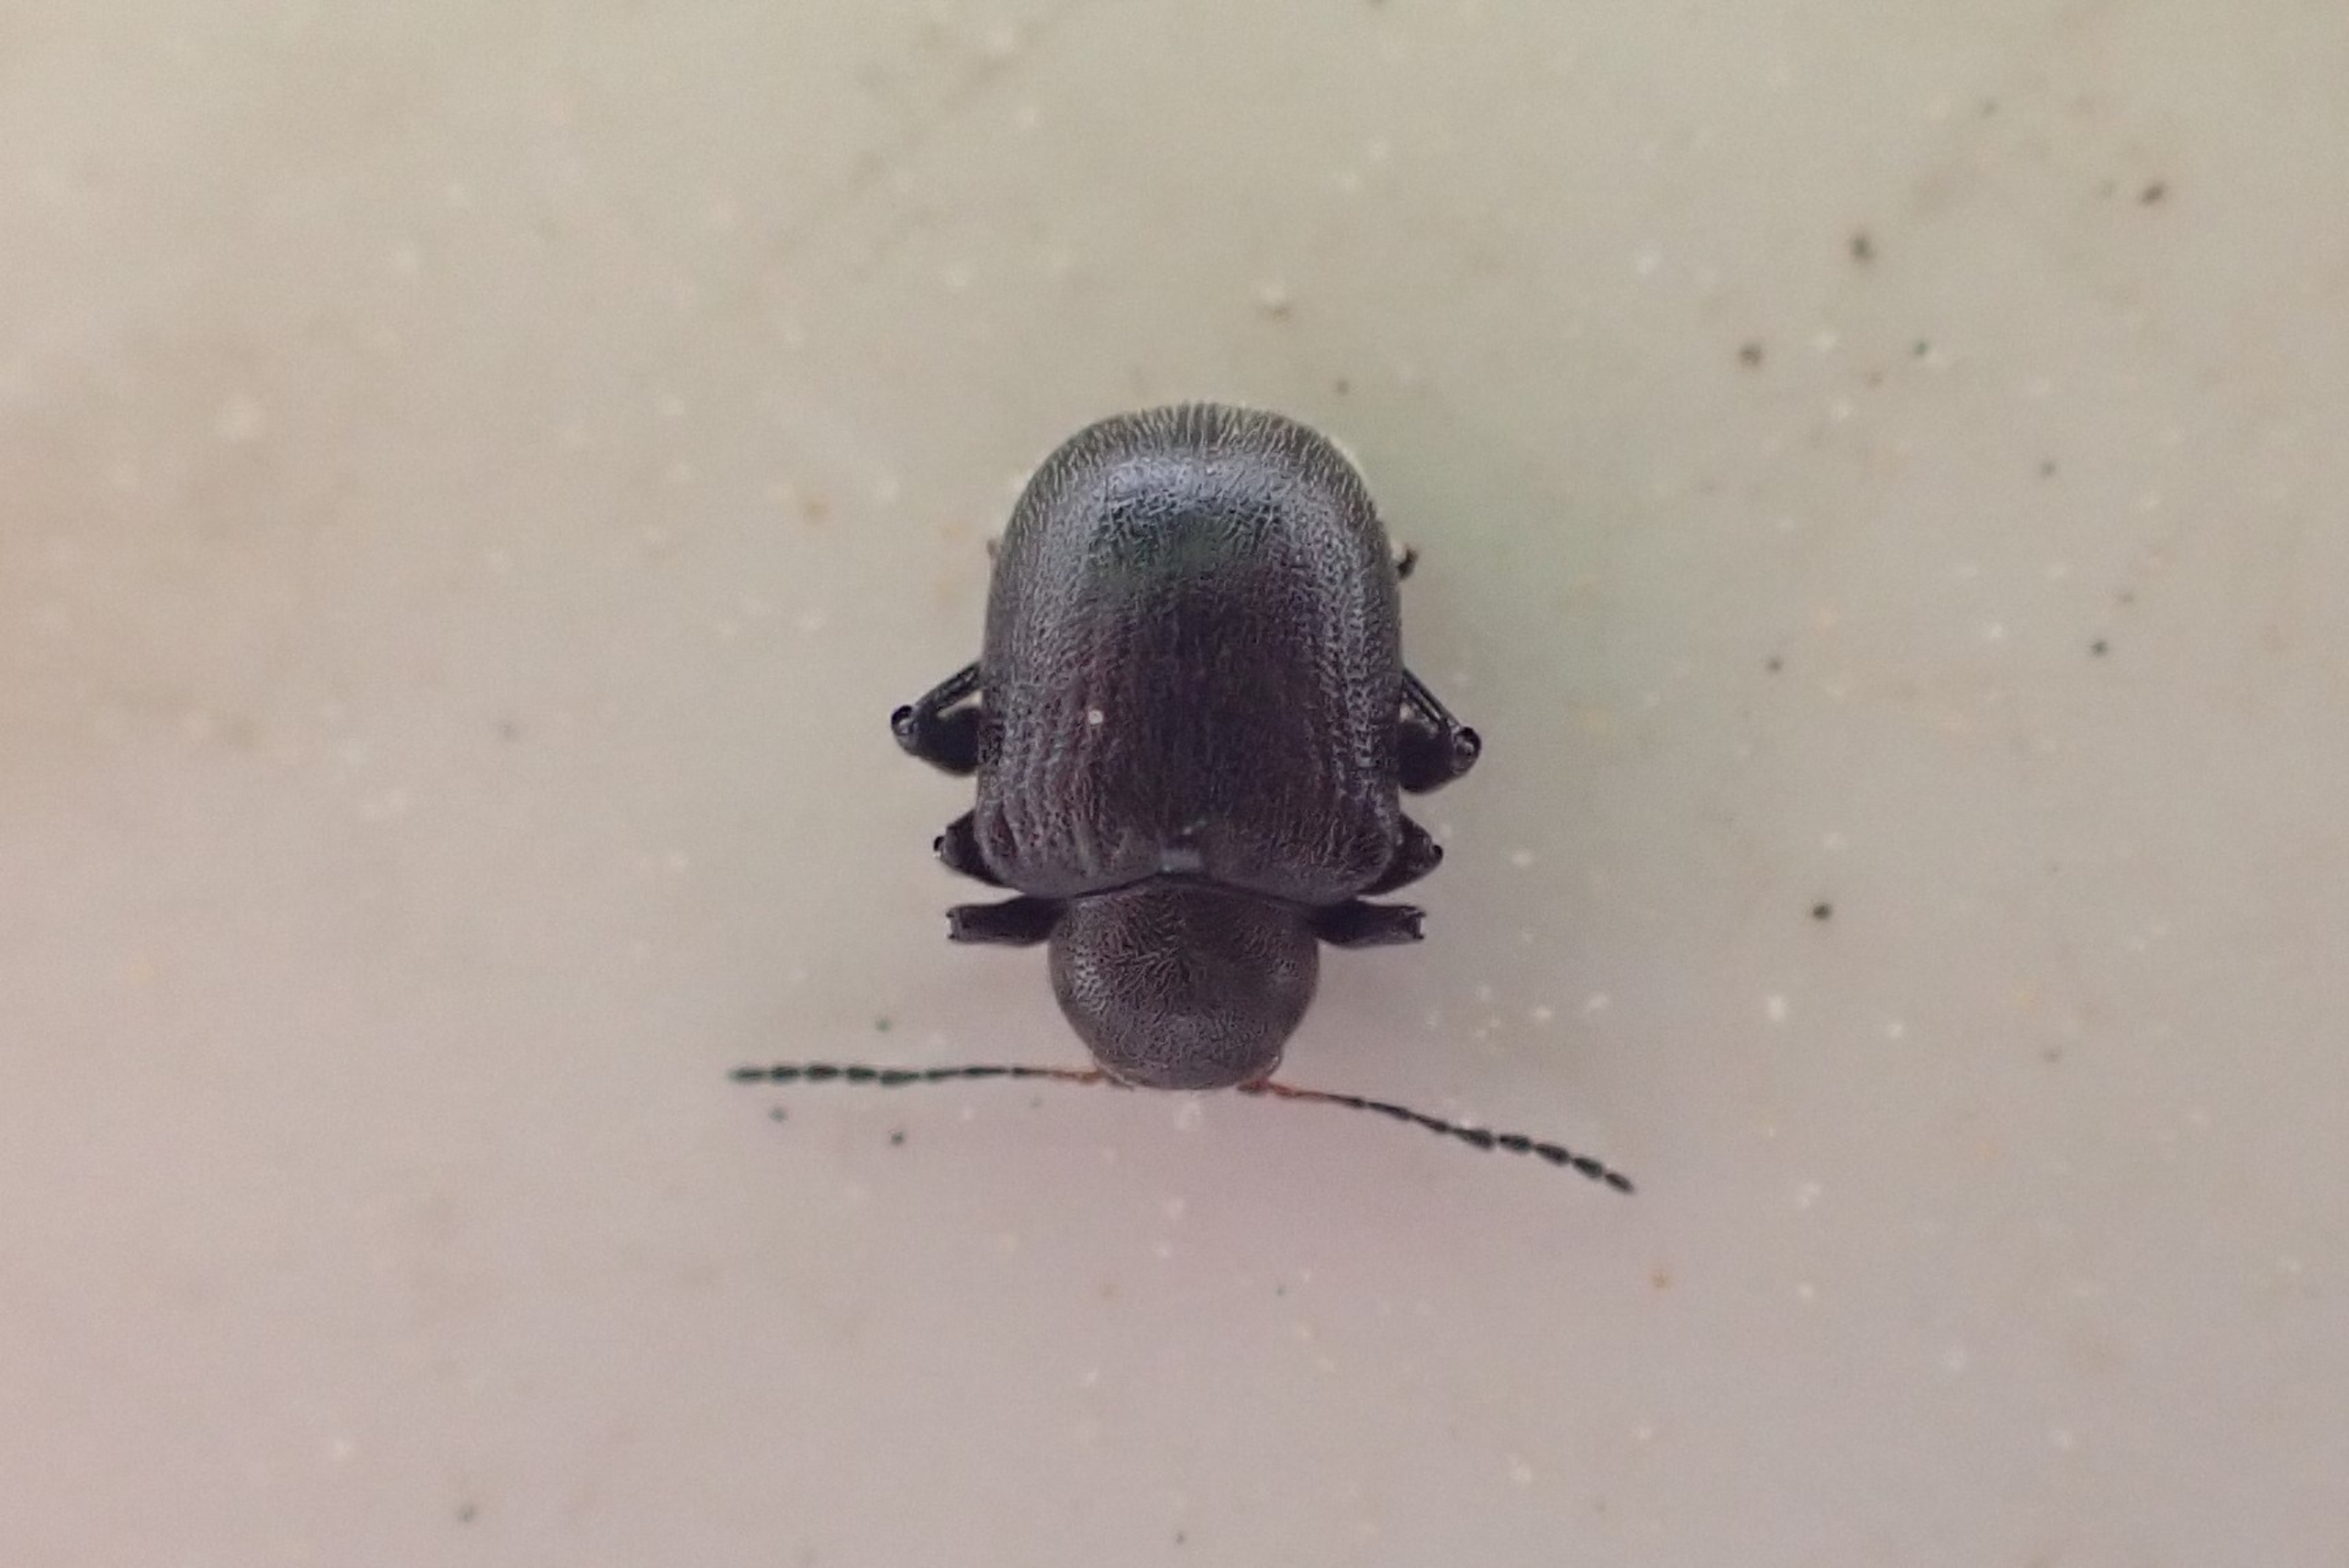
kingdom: Animalia
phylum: Arthropoda
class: Insecta
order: Coleoptera
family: Chrysomelidae
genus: Bromius
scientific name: Bromius obscurus
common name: Gederamsbille
